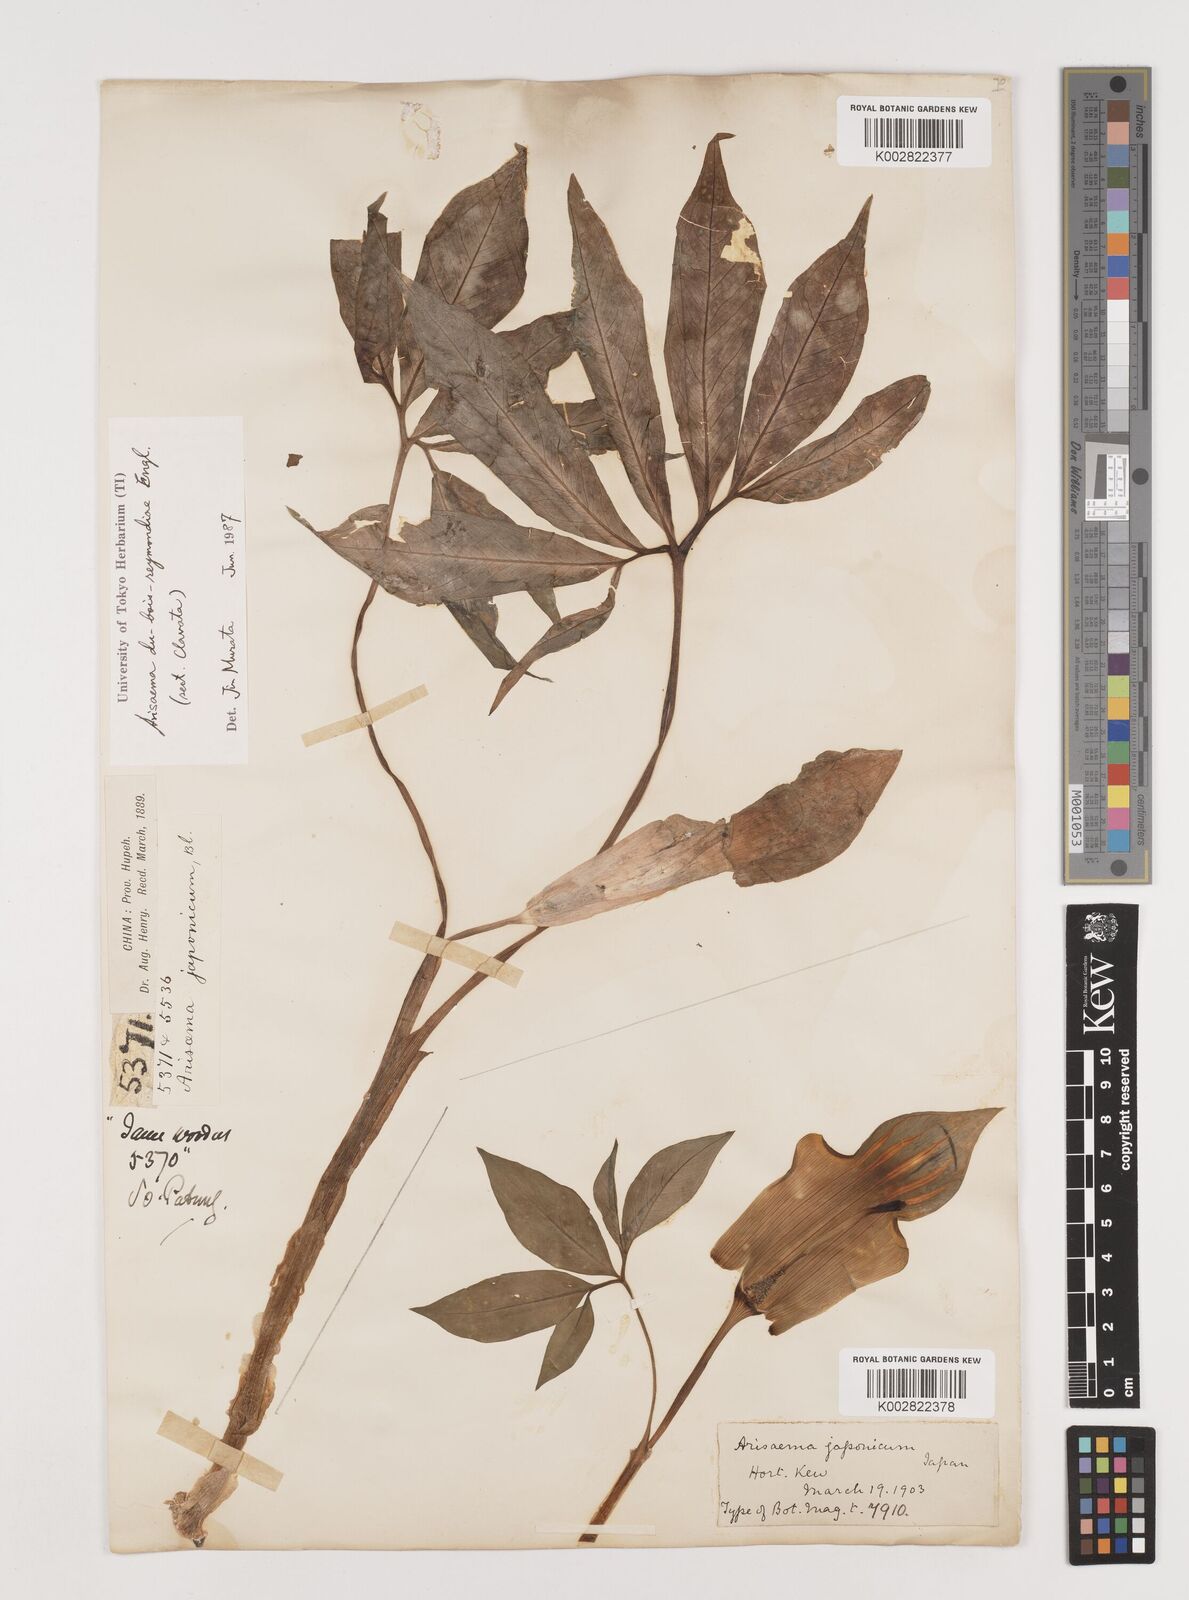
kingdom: Plantae
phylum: Tracheophyta
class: Liliopsida
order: Alismatales
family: Araceae
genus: Arisaema
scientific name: Arisaema silvestrii
